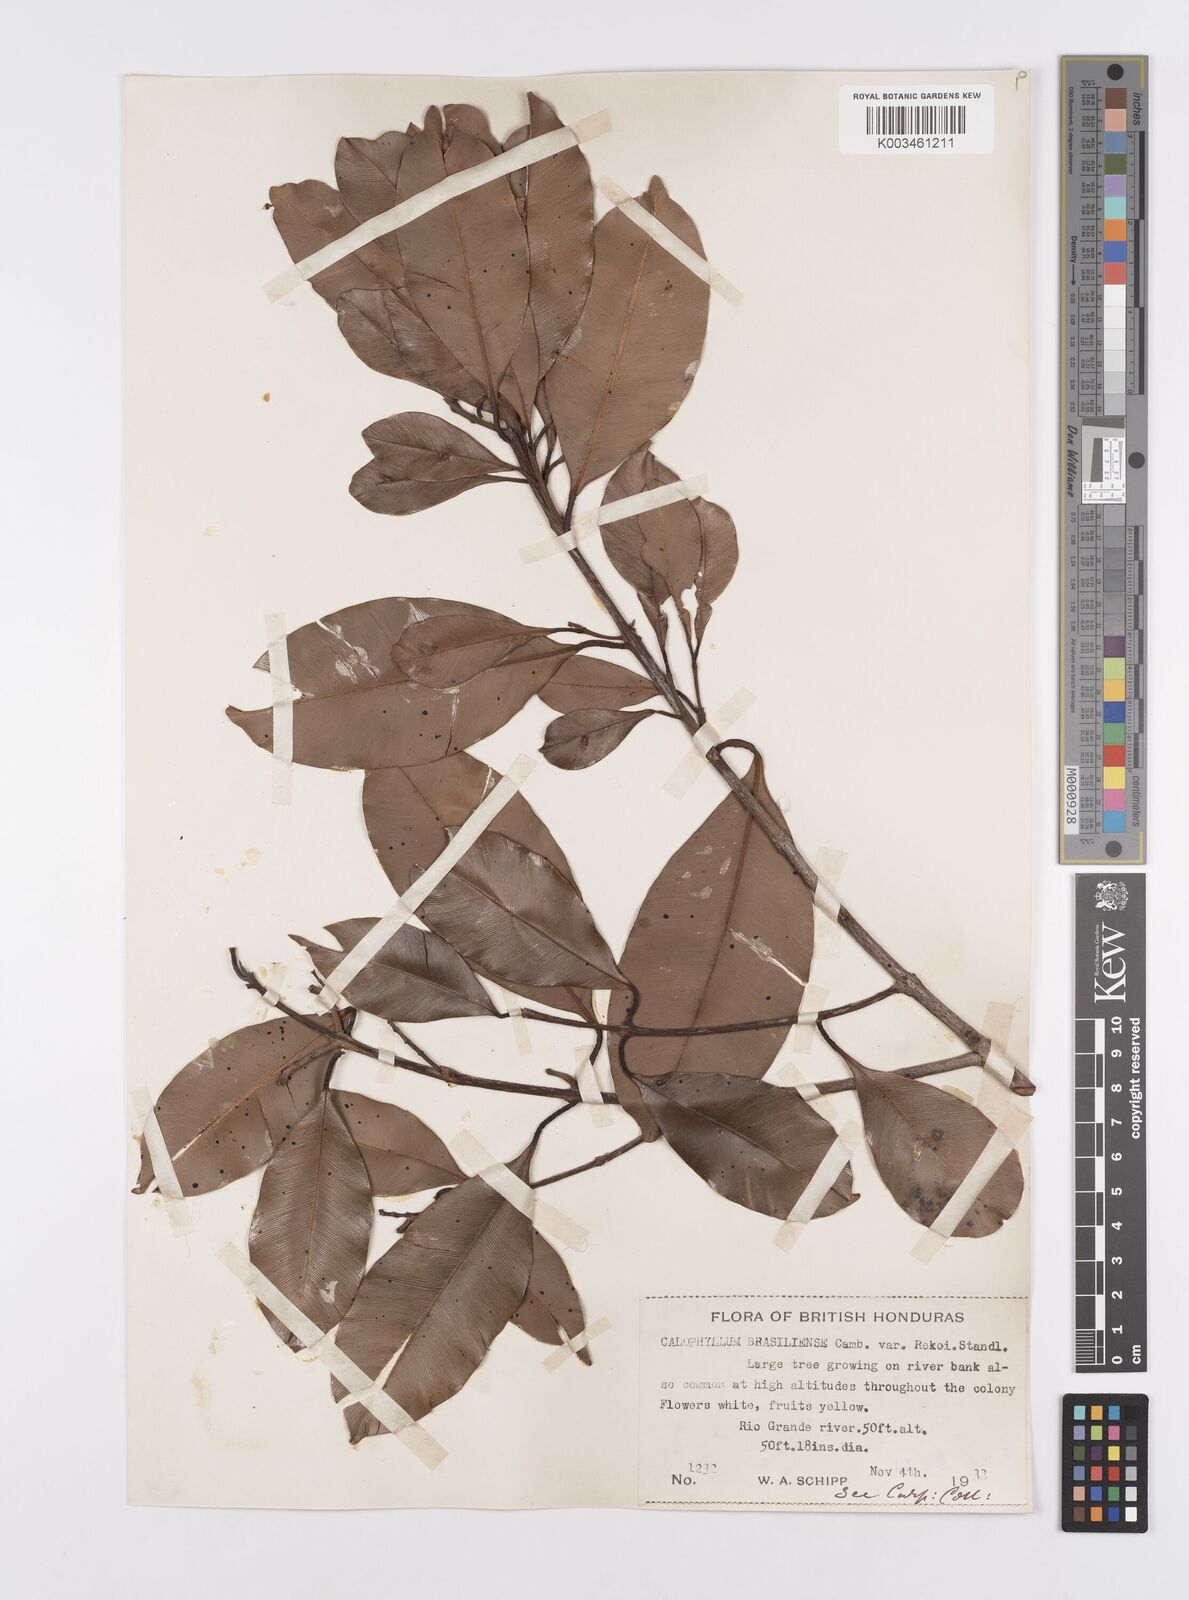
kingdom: Plantae
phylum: Tracheophyta
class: Magnoliopsida
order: Malpighiales
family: Calophyllaceae
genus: Calophyllum
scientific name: Calophyllum brasiliense
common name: Santa maria
